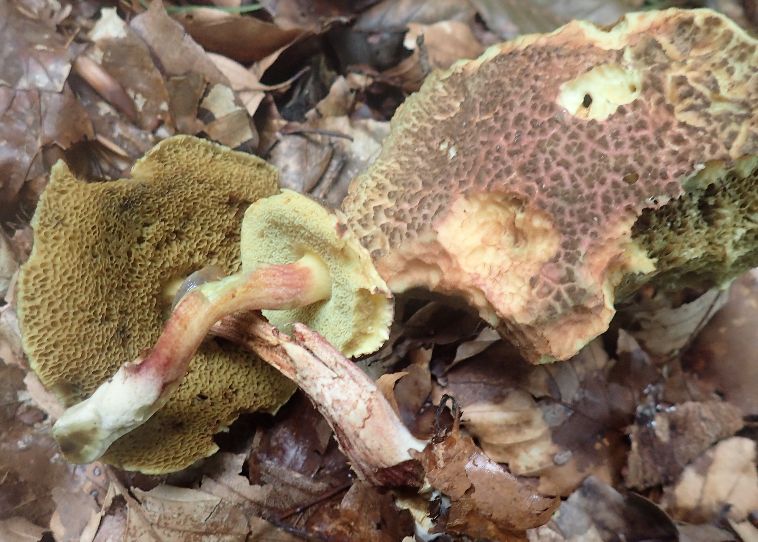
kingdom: Fungi
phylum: Basidiomycota
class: Agaricomycetes
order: Boletales
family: Boletaceae
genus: Xerocomellus
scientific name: Xerocomellus chrysenteron
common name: rødsprukken rørhat
